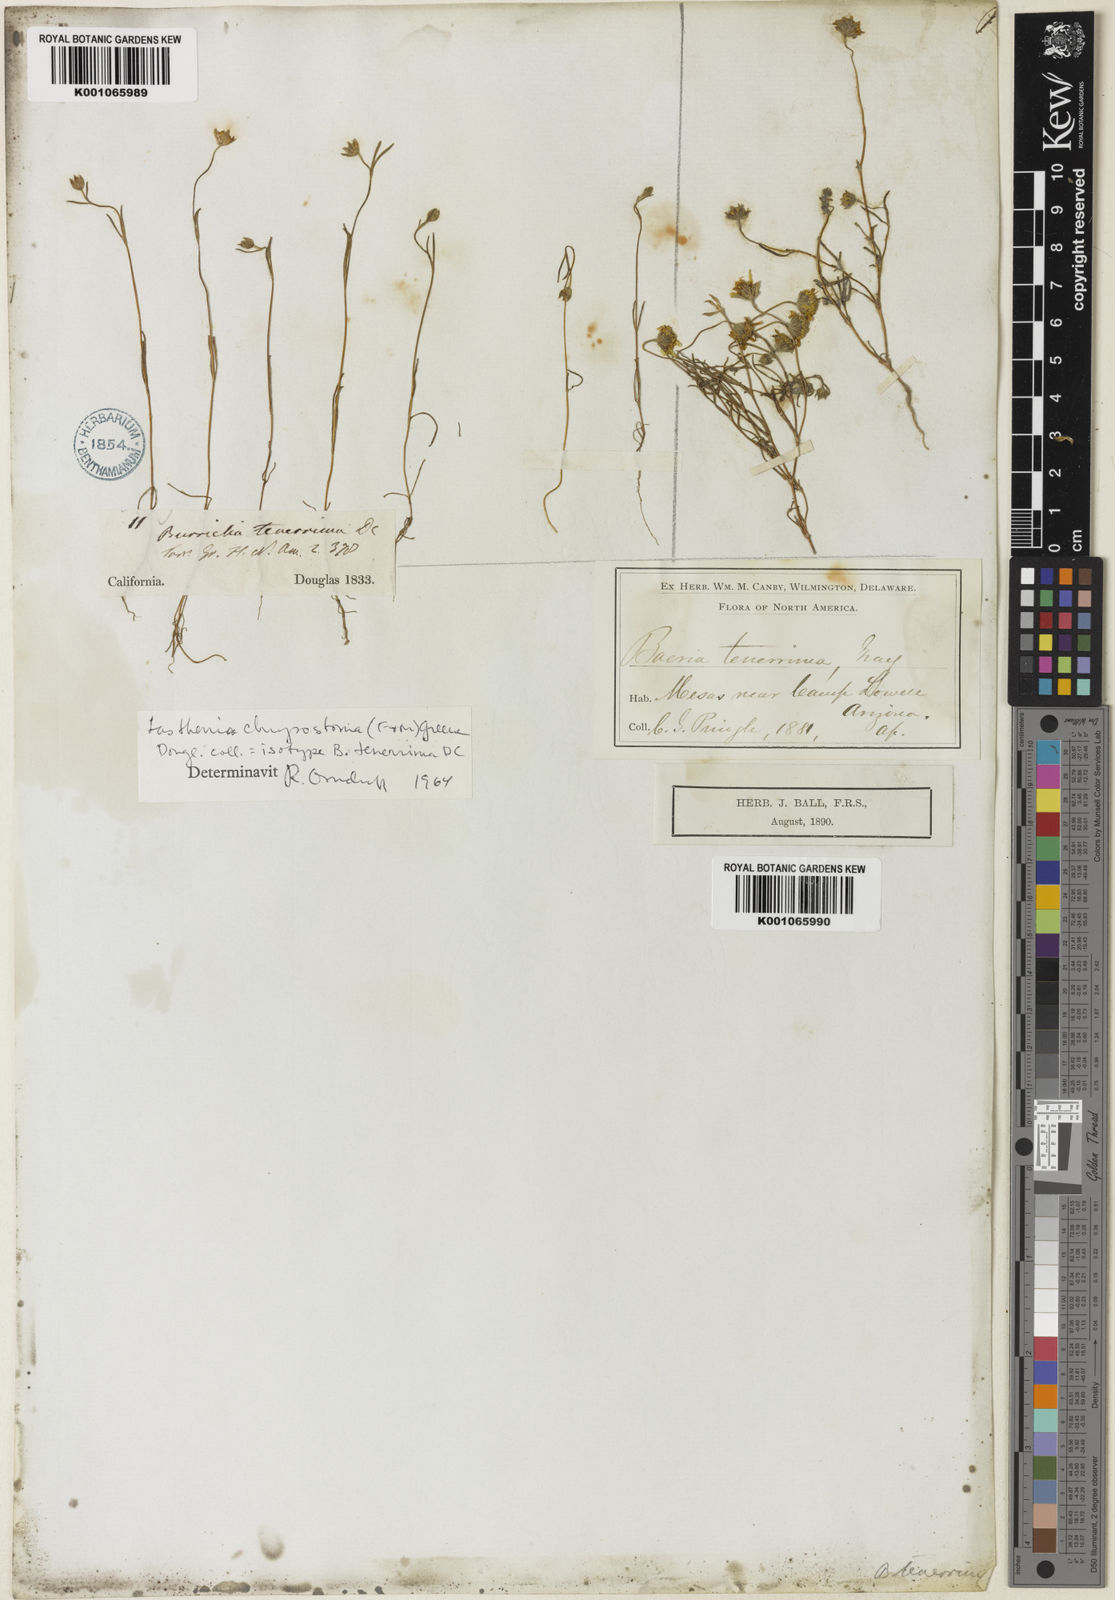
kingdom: Plantae
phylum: Tracheophyta
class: Magnoliopsida
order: Asterales
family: Asteraceae
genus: Lasthenia
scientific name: Lasthenia californica
